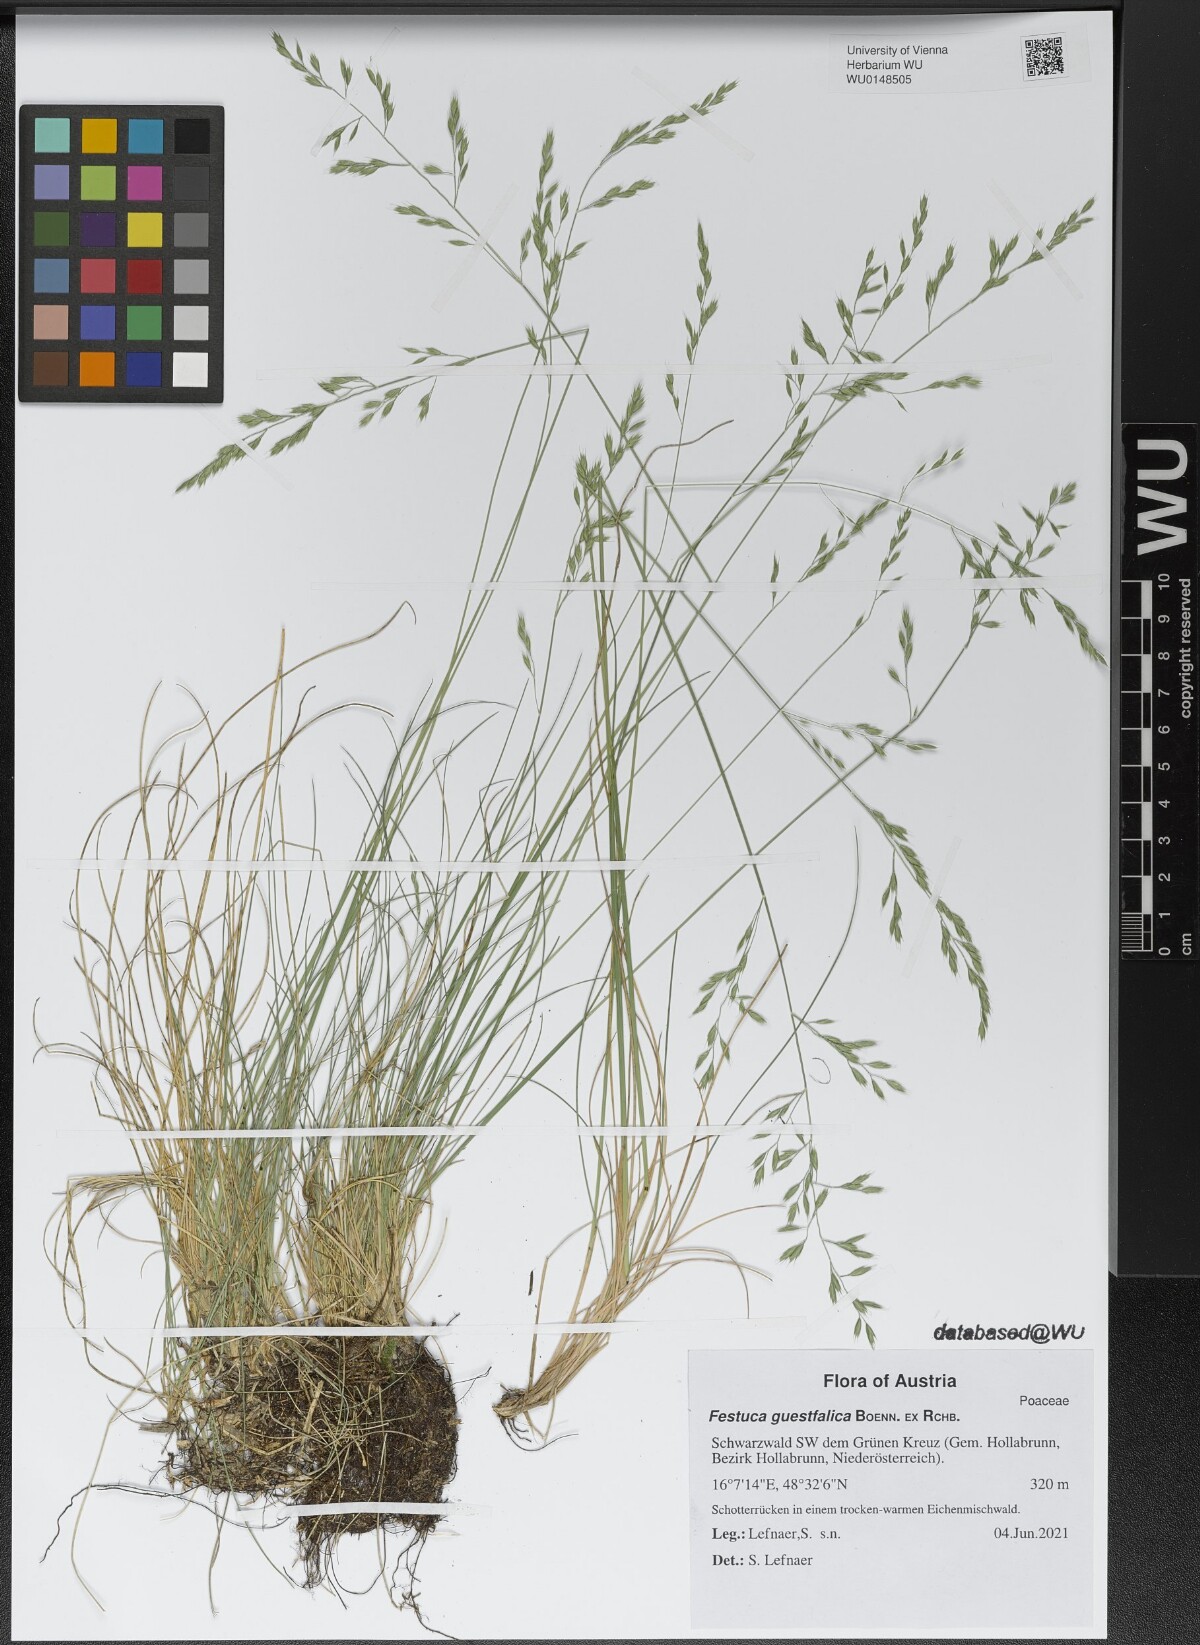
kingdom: Plantae
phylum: Tracheophyta
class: Liliopsida
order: Poales
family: Poaceae
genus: Festuca
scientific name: Festuca guestfalica
